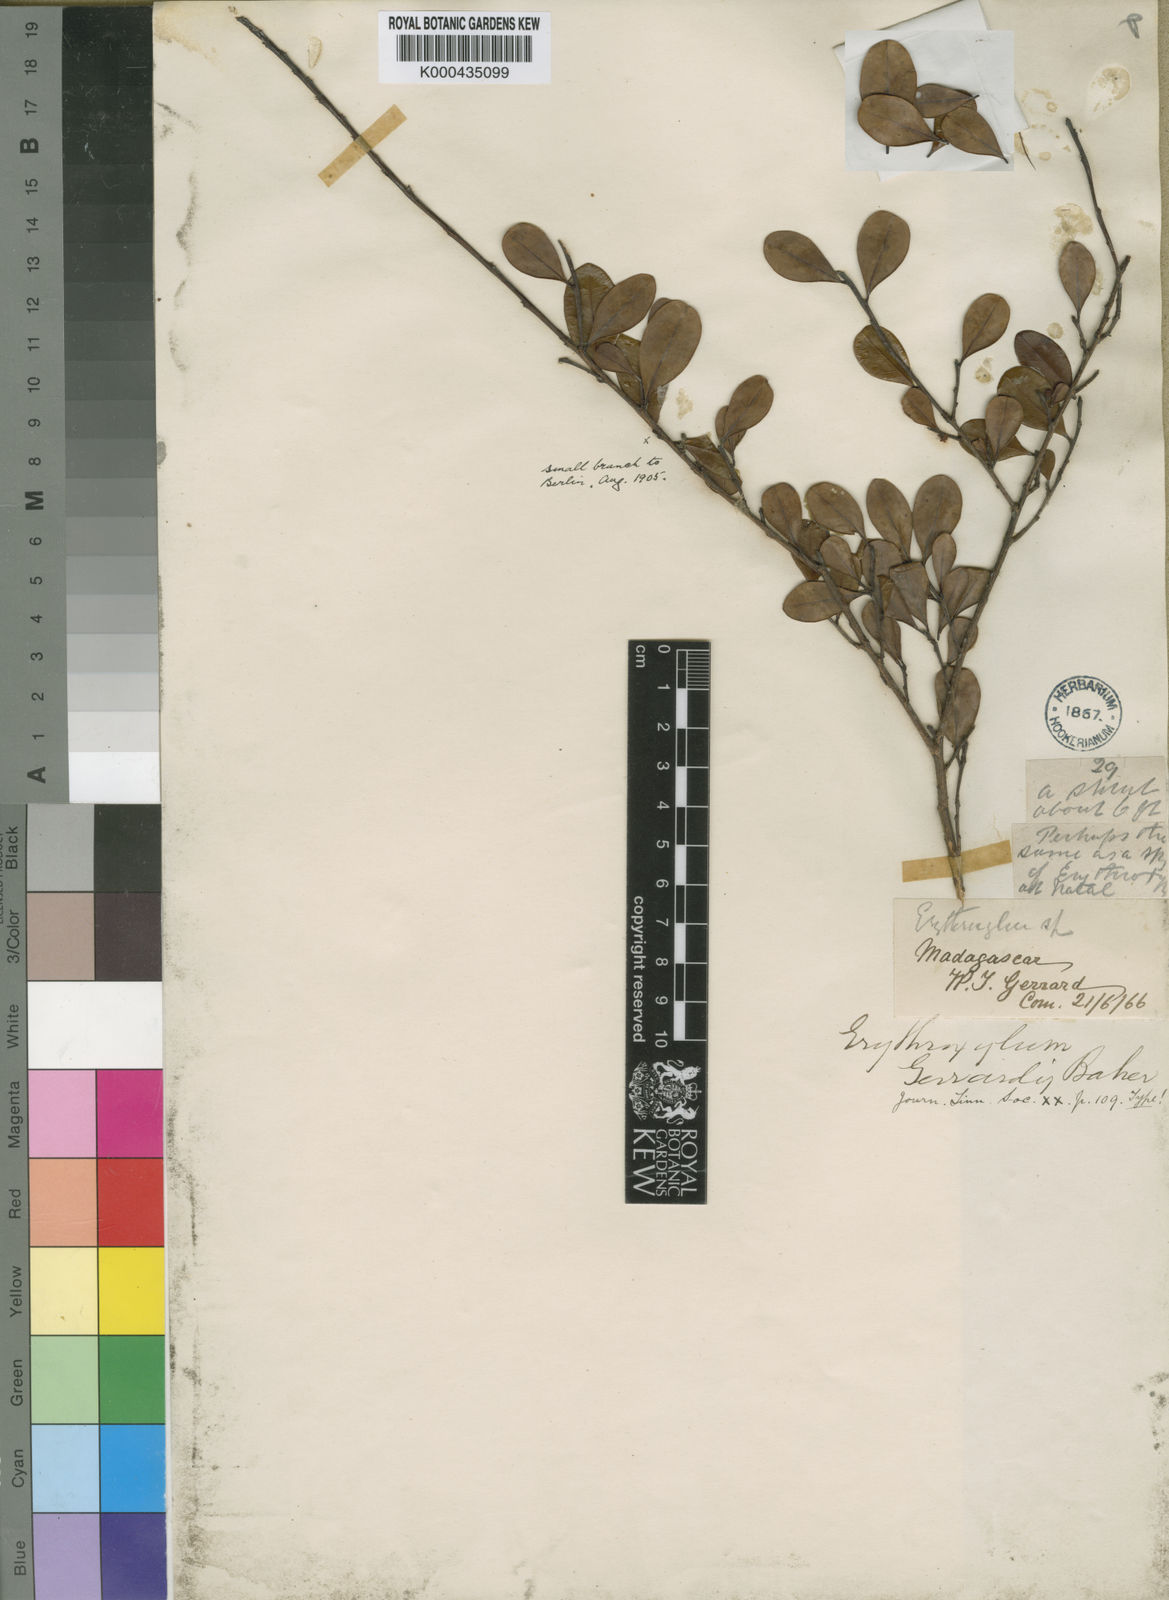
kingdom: Plantae
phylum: Tracheophyta
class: Magnoliopsida
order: Malpighiales
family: Erythroxylaceae
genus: Erythroxylum
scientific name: Erythroxylum gerrardii
